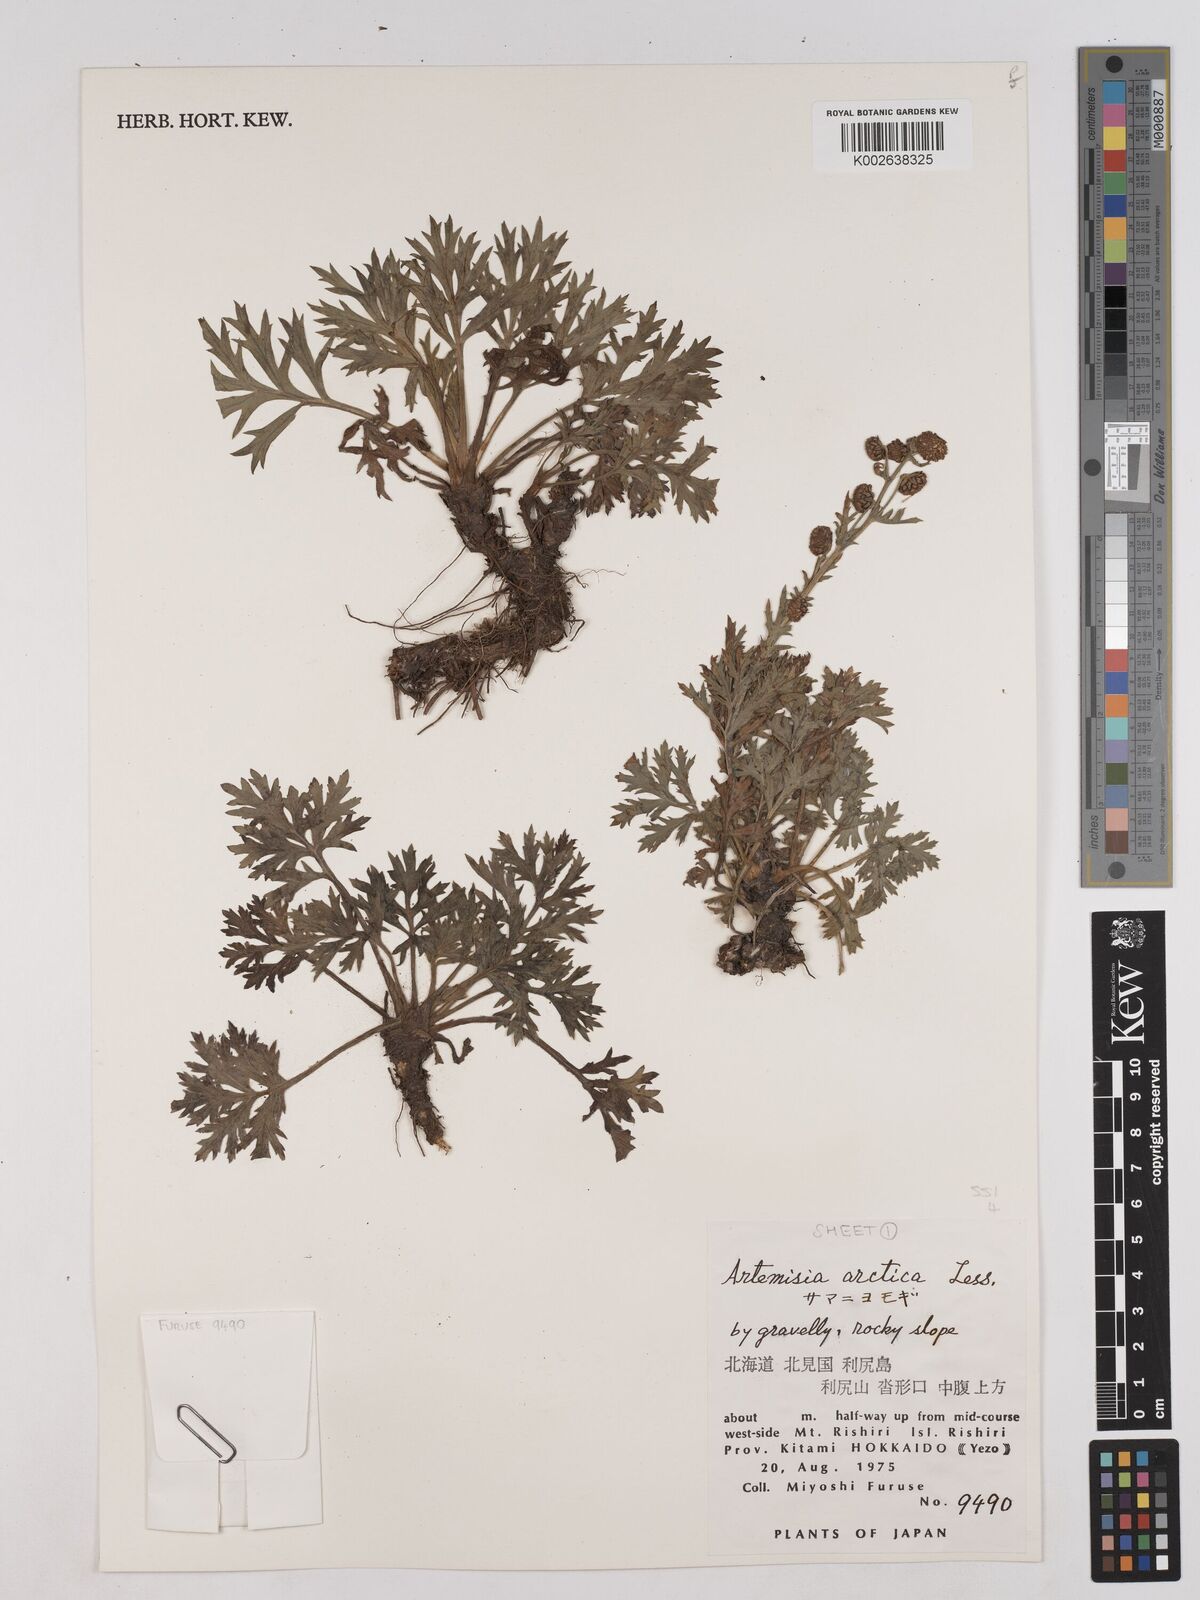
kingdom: Plantae
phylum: Tracheophyta
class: Magnoliopsida
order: Asterales
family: Asteraceae
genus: Artemisia
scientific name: Artemisia norvegica
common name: Norwegian mugwort
